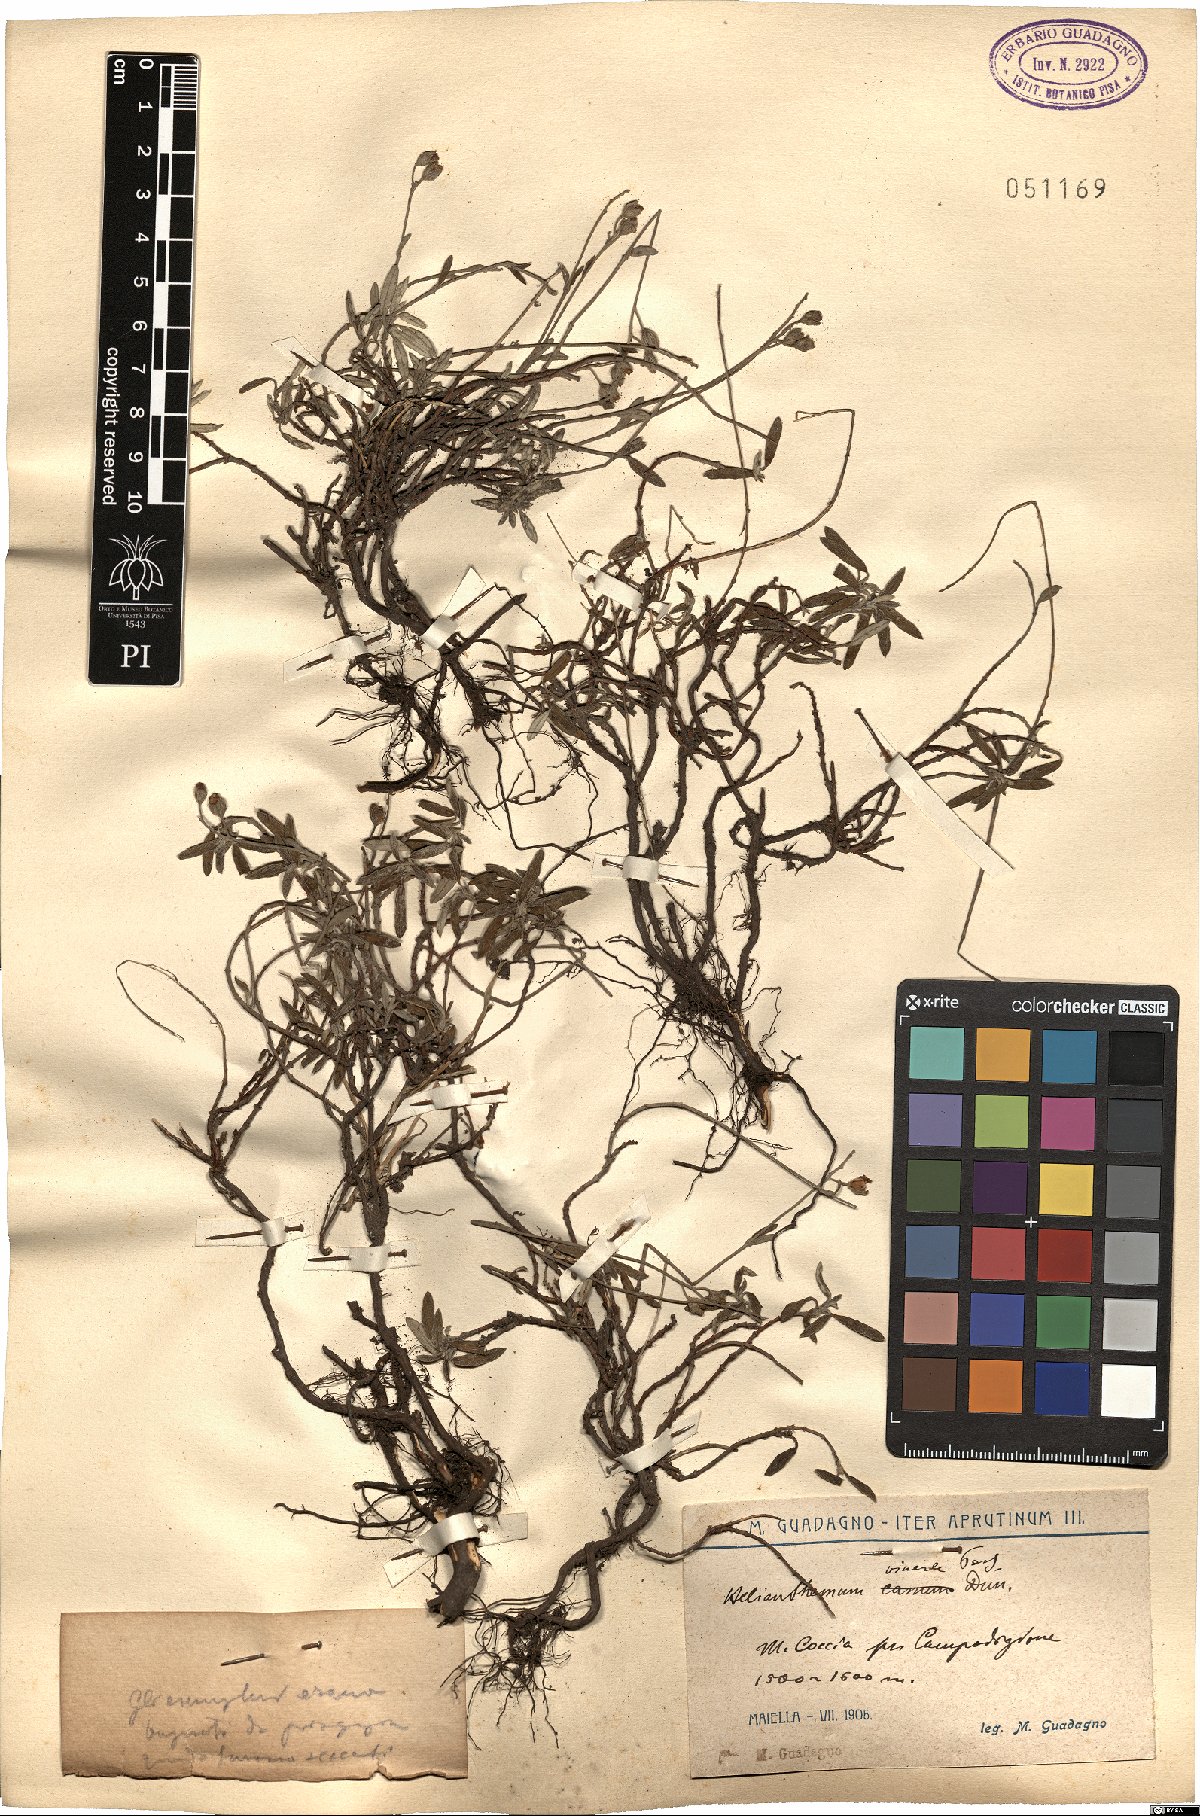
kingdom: Plantae
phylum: Tracheophyta
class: Magnoliopsida
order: Malvales
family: Cistaceae
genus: Helianthemum
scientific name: Helianthemum canum
